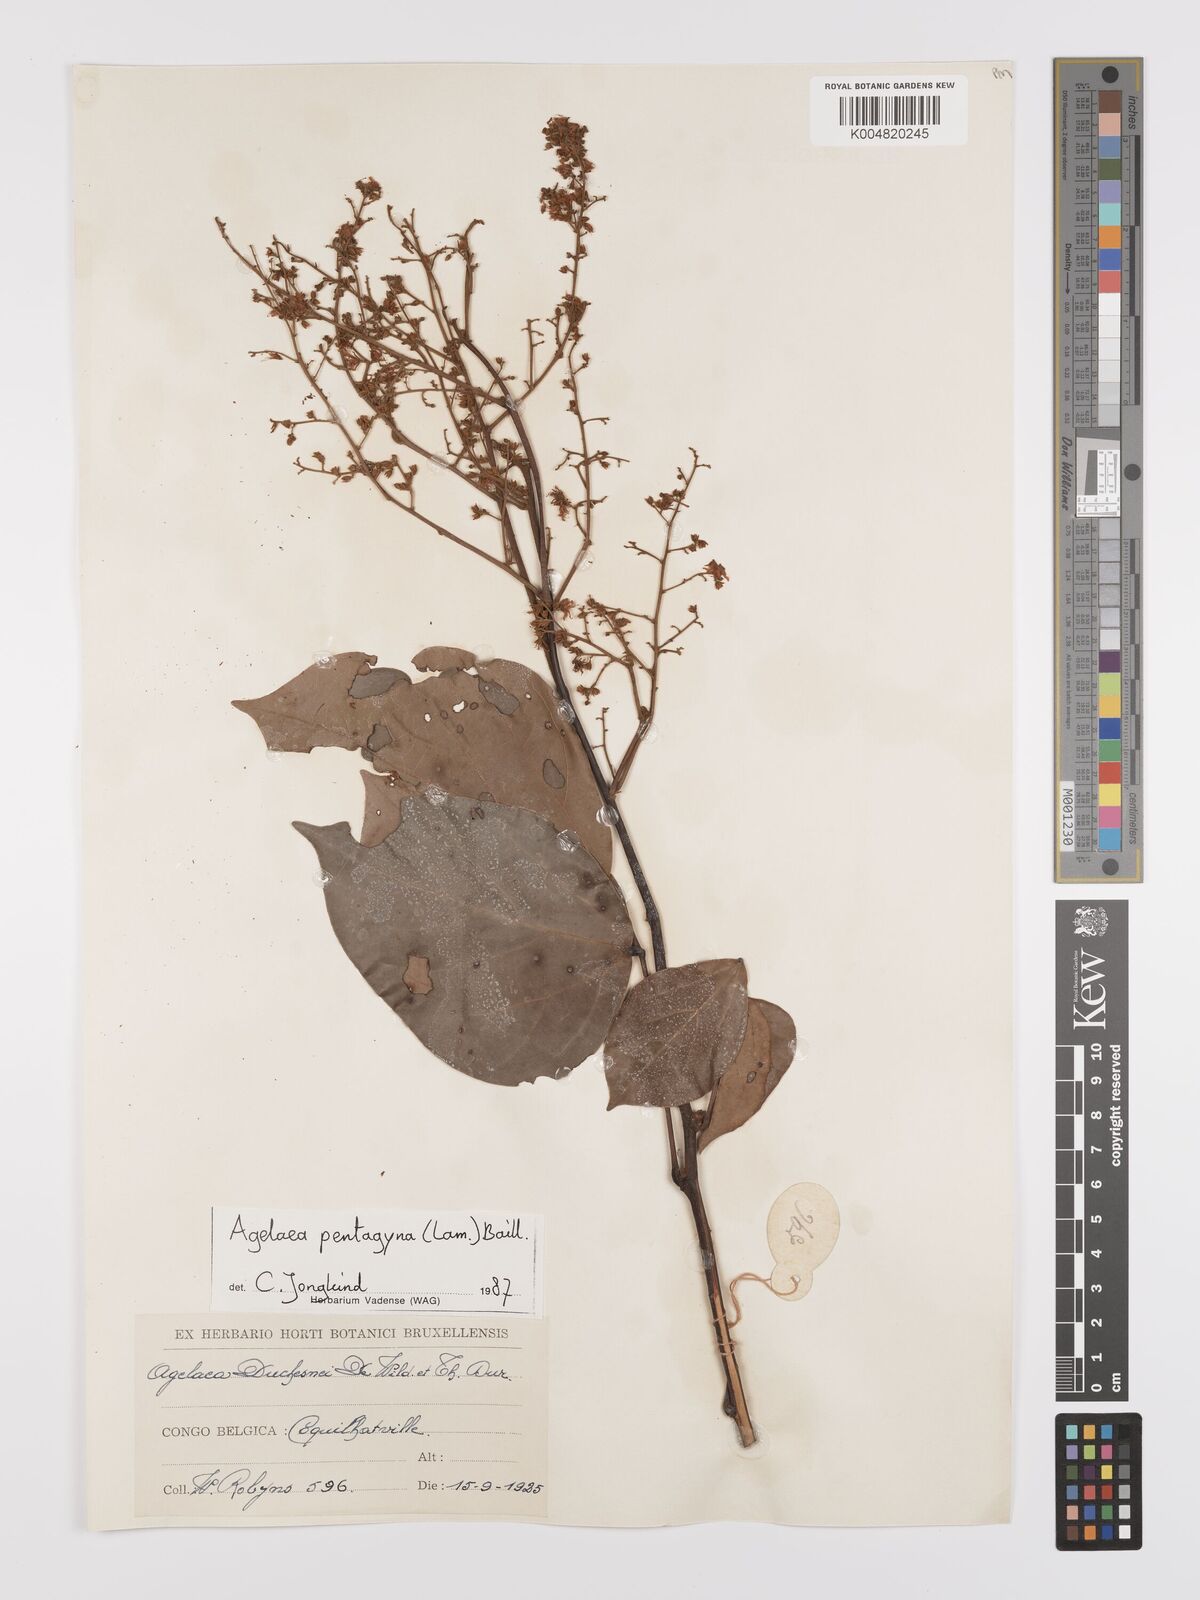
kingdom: Plantae
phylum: Tracheophyta
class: Magnoliopsida
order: Oxalidales
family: Connaraceae
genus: Agelaea
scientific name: Agelaea pentagyna
